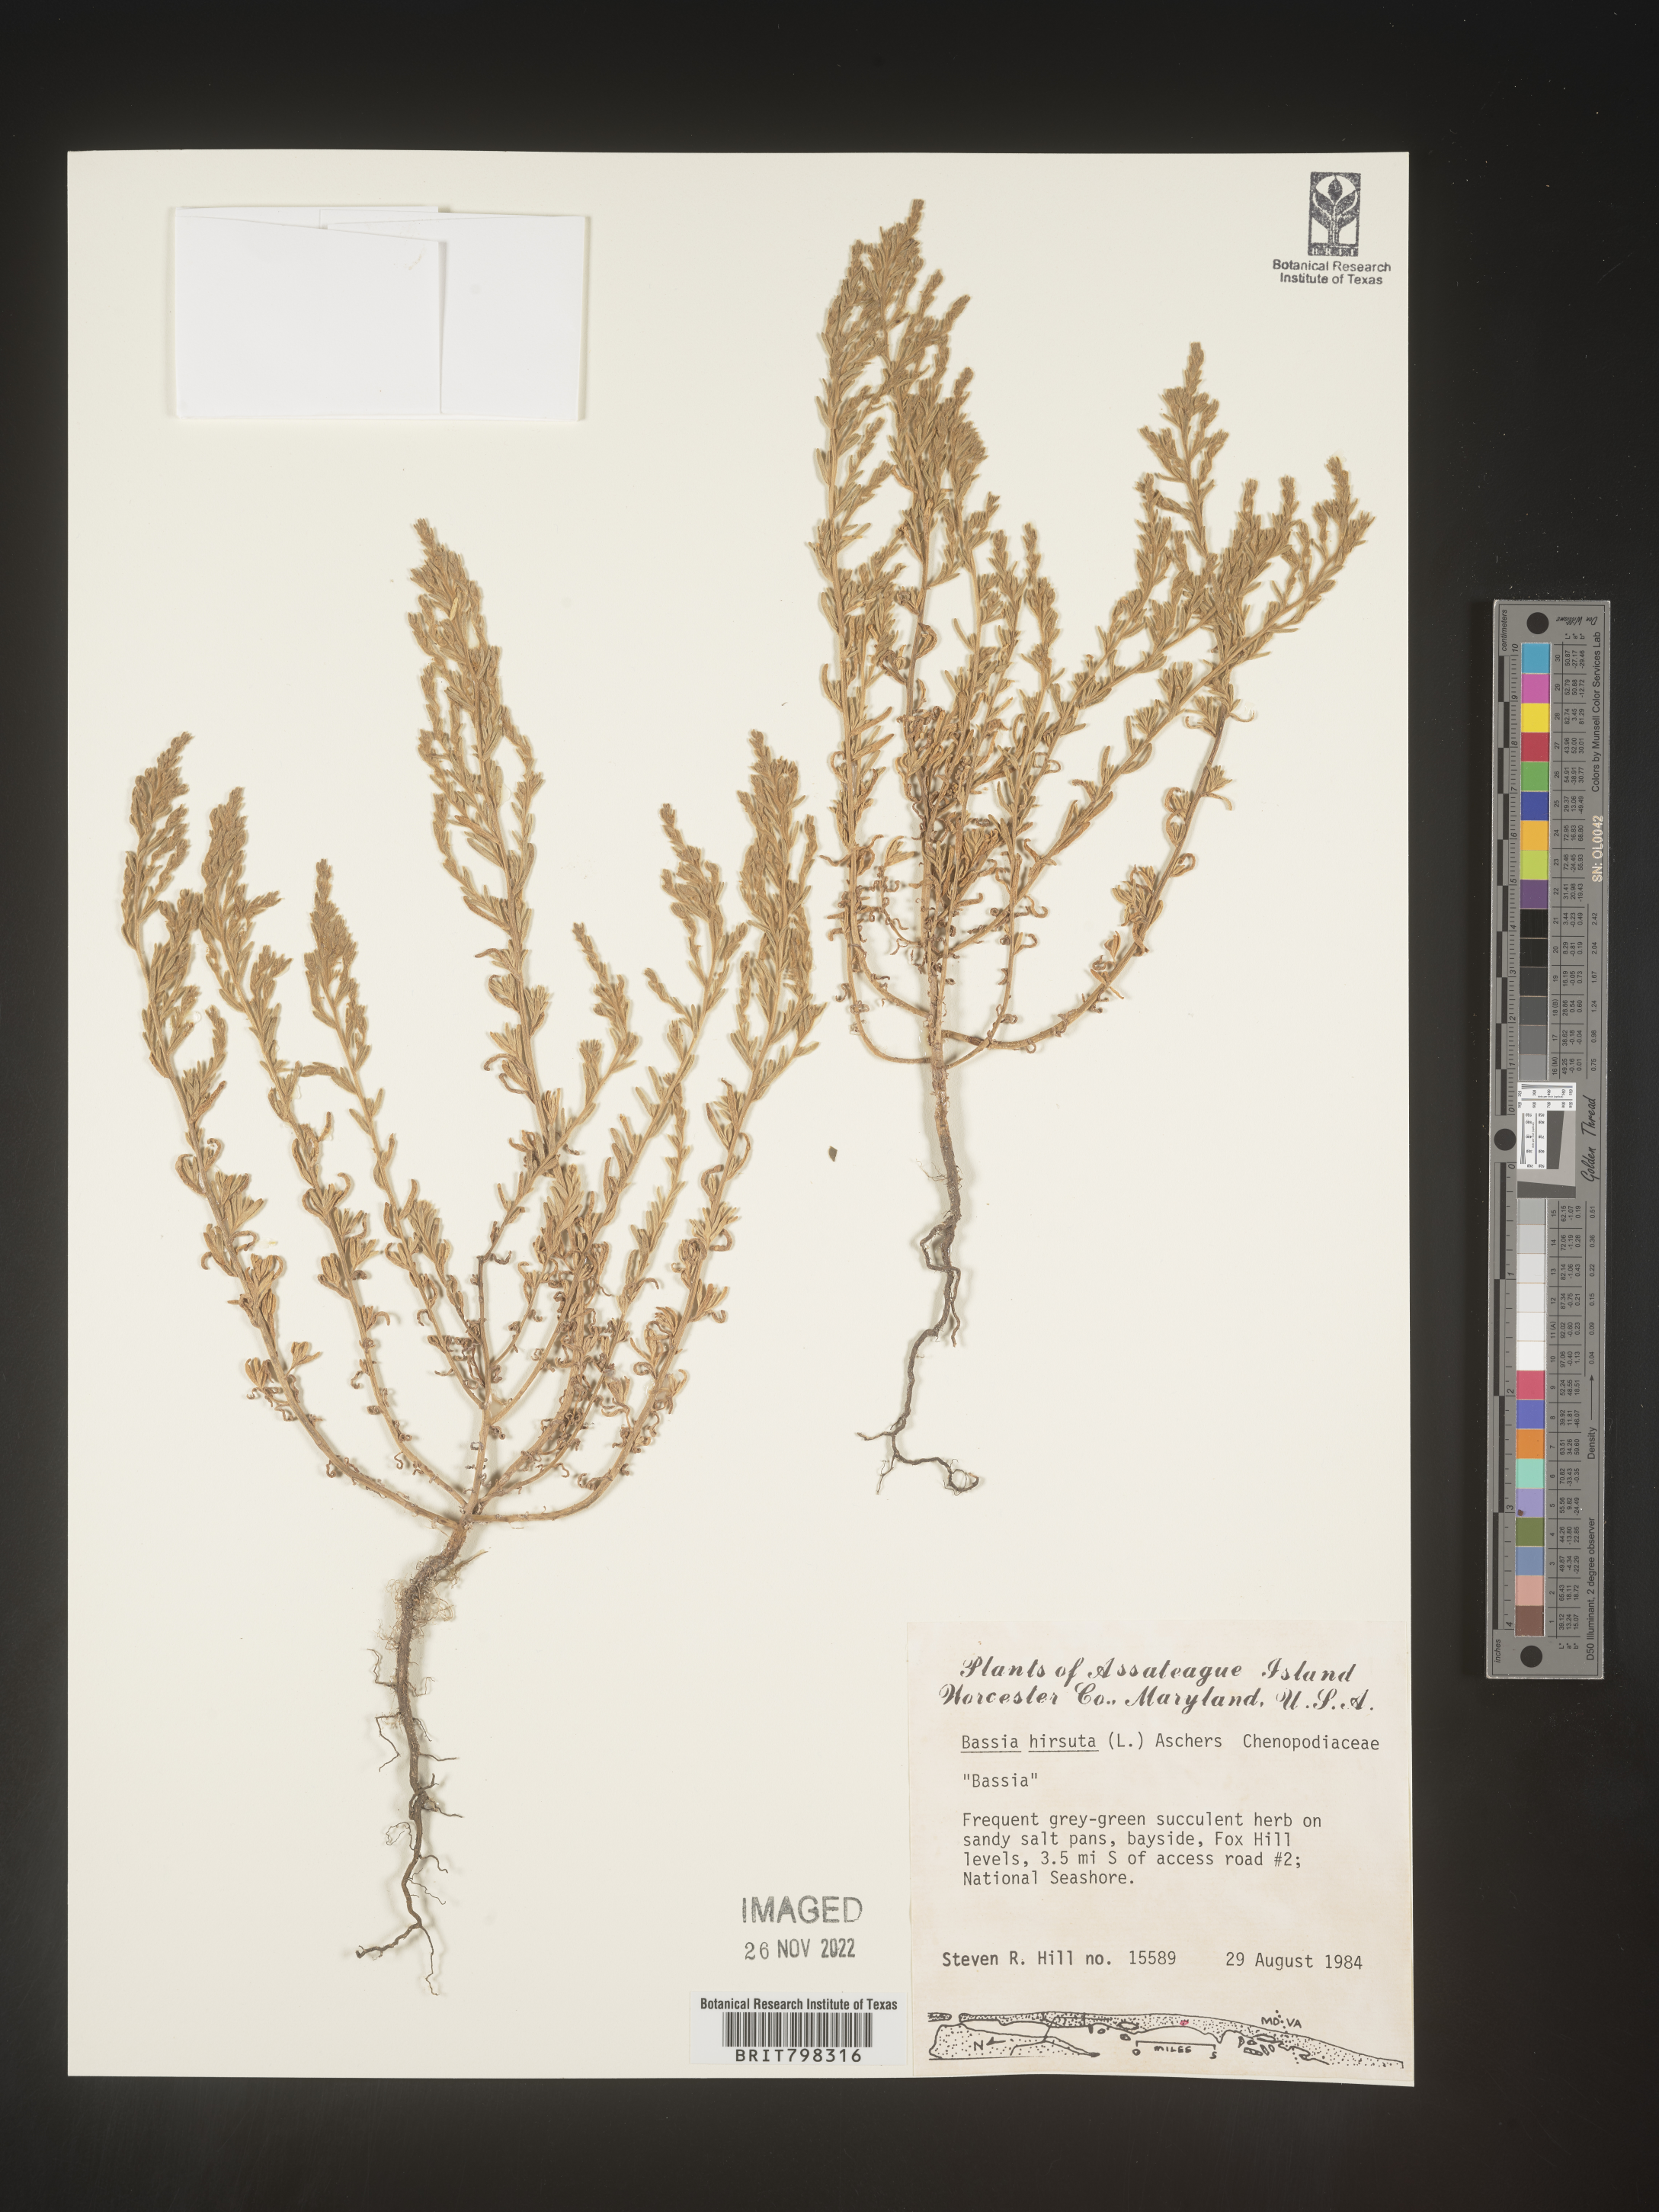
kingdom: Plantae
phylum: Tracheophyta
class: Magnoliopsida
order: Caryophyllales
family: Amaranthaceae
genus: Bassia
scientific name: Bassia
